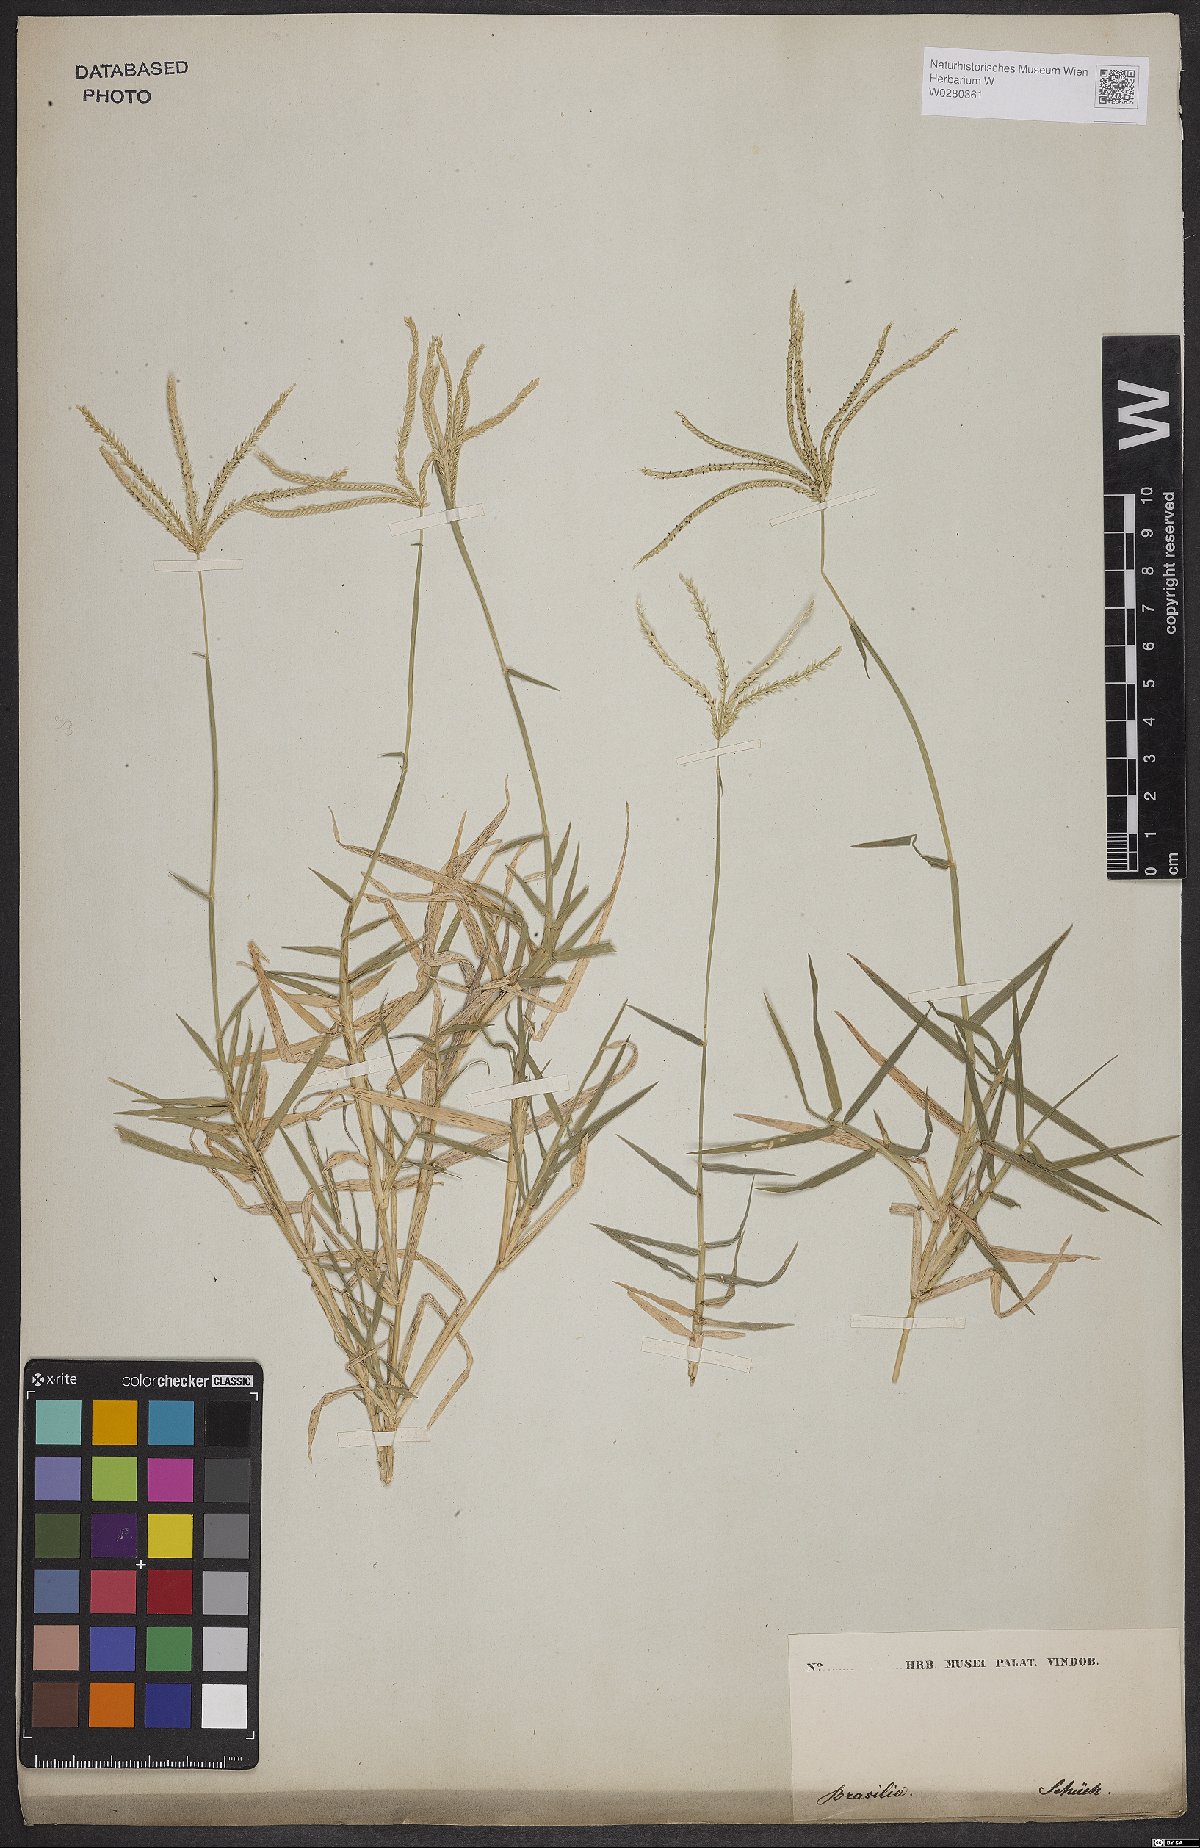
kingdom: Plantae
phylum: Tracheophyta
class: Liliopsida
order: Poales
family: Poaceae
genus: Cynodon
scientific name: Cynodon dactylon
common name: Bermuda grass
